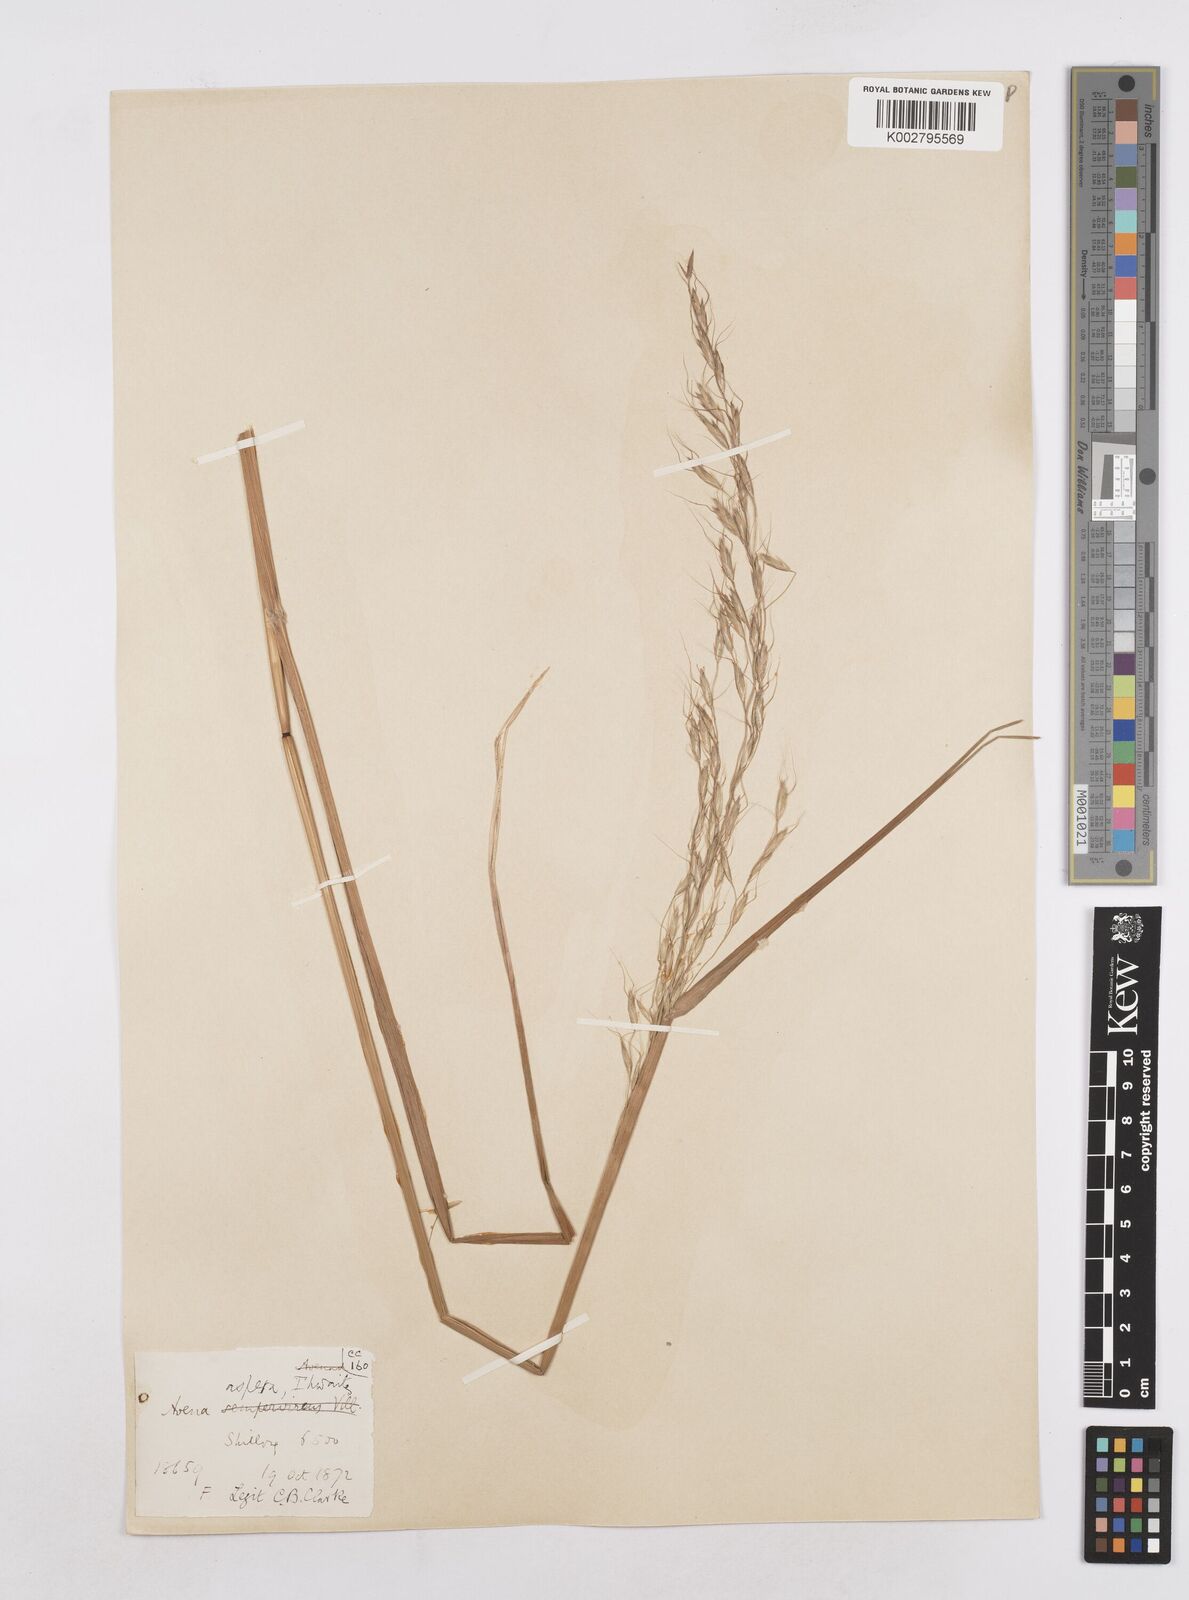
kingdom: Plantae
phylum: Tracheophyta
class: Liliopsida
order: Poales
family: Poaceae
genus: Trisetopsis
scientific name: Trisetopsis junghuhnii
